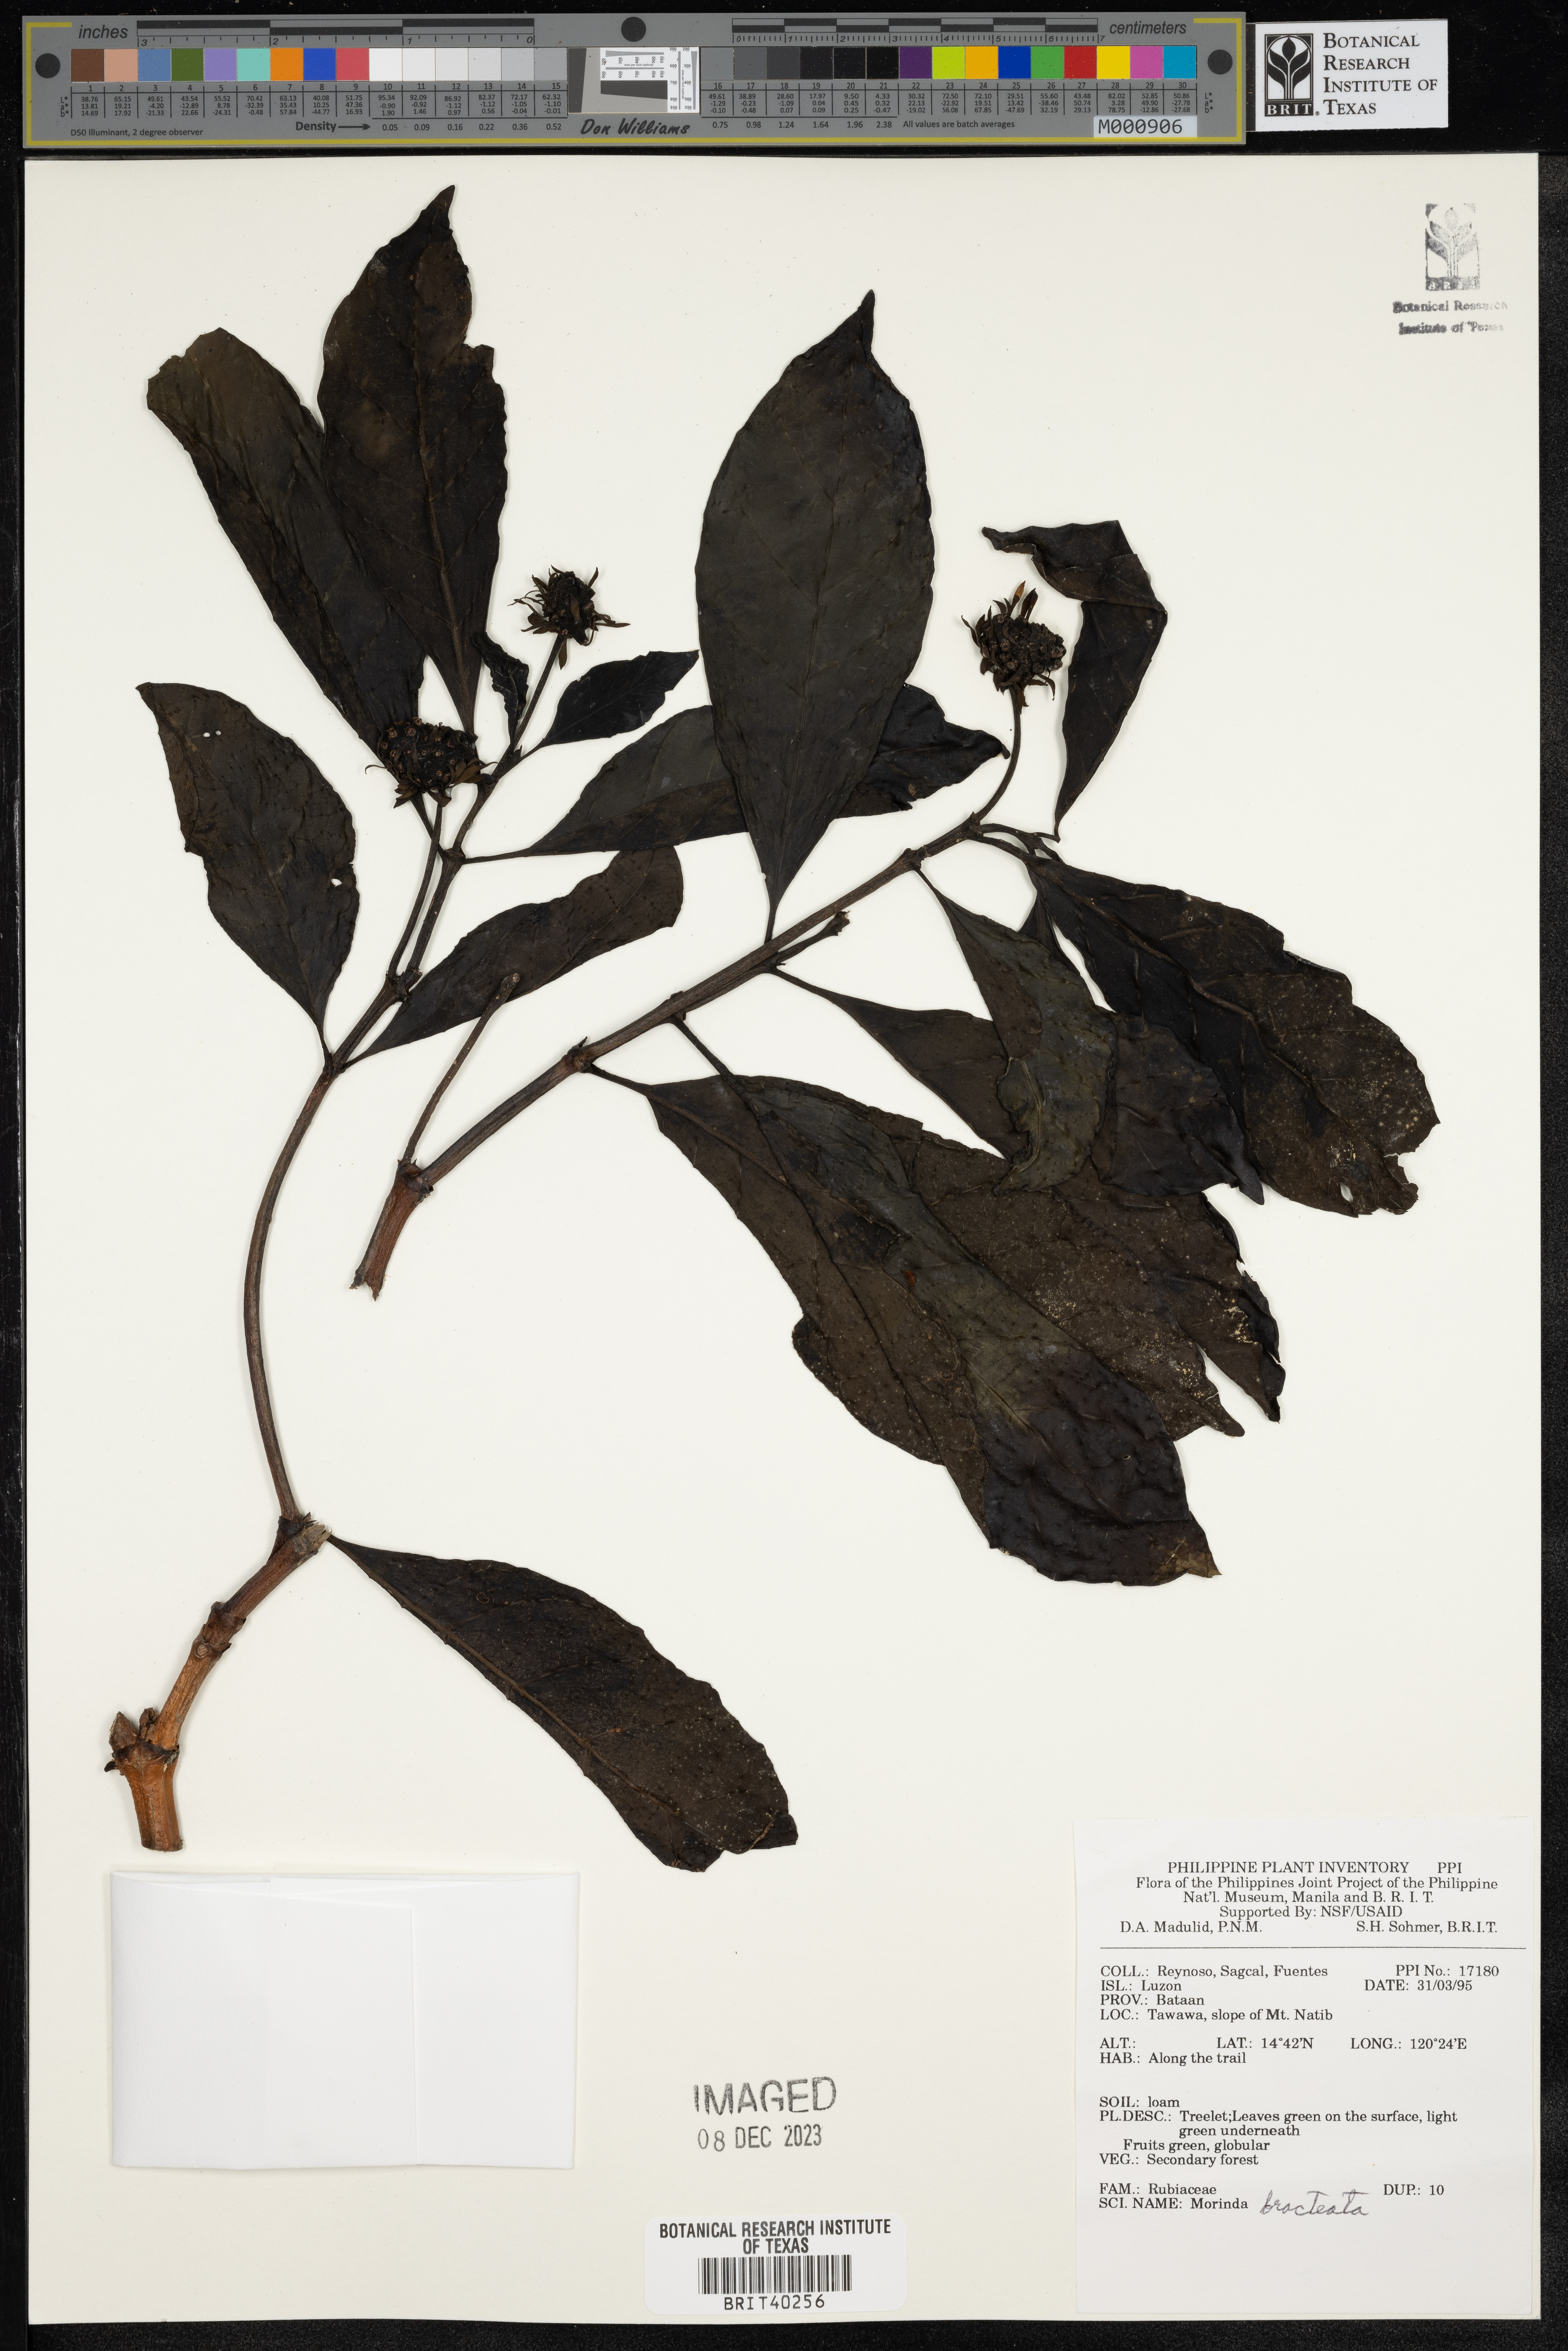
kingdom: Plantae
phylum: Tracheophyta
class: Magnoliopsida
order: Gentianales
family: Rubiaceae
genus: Morinda
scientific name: Morinda bracteata
